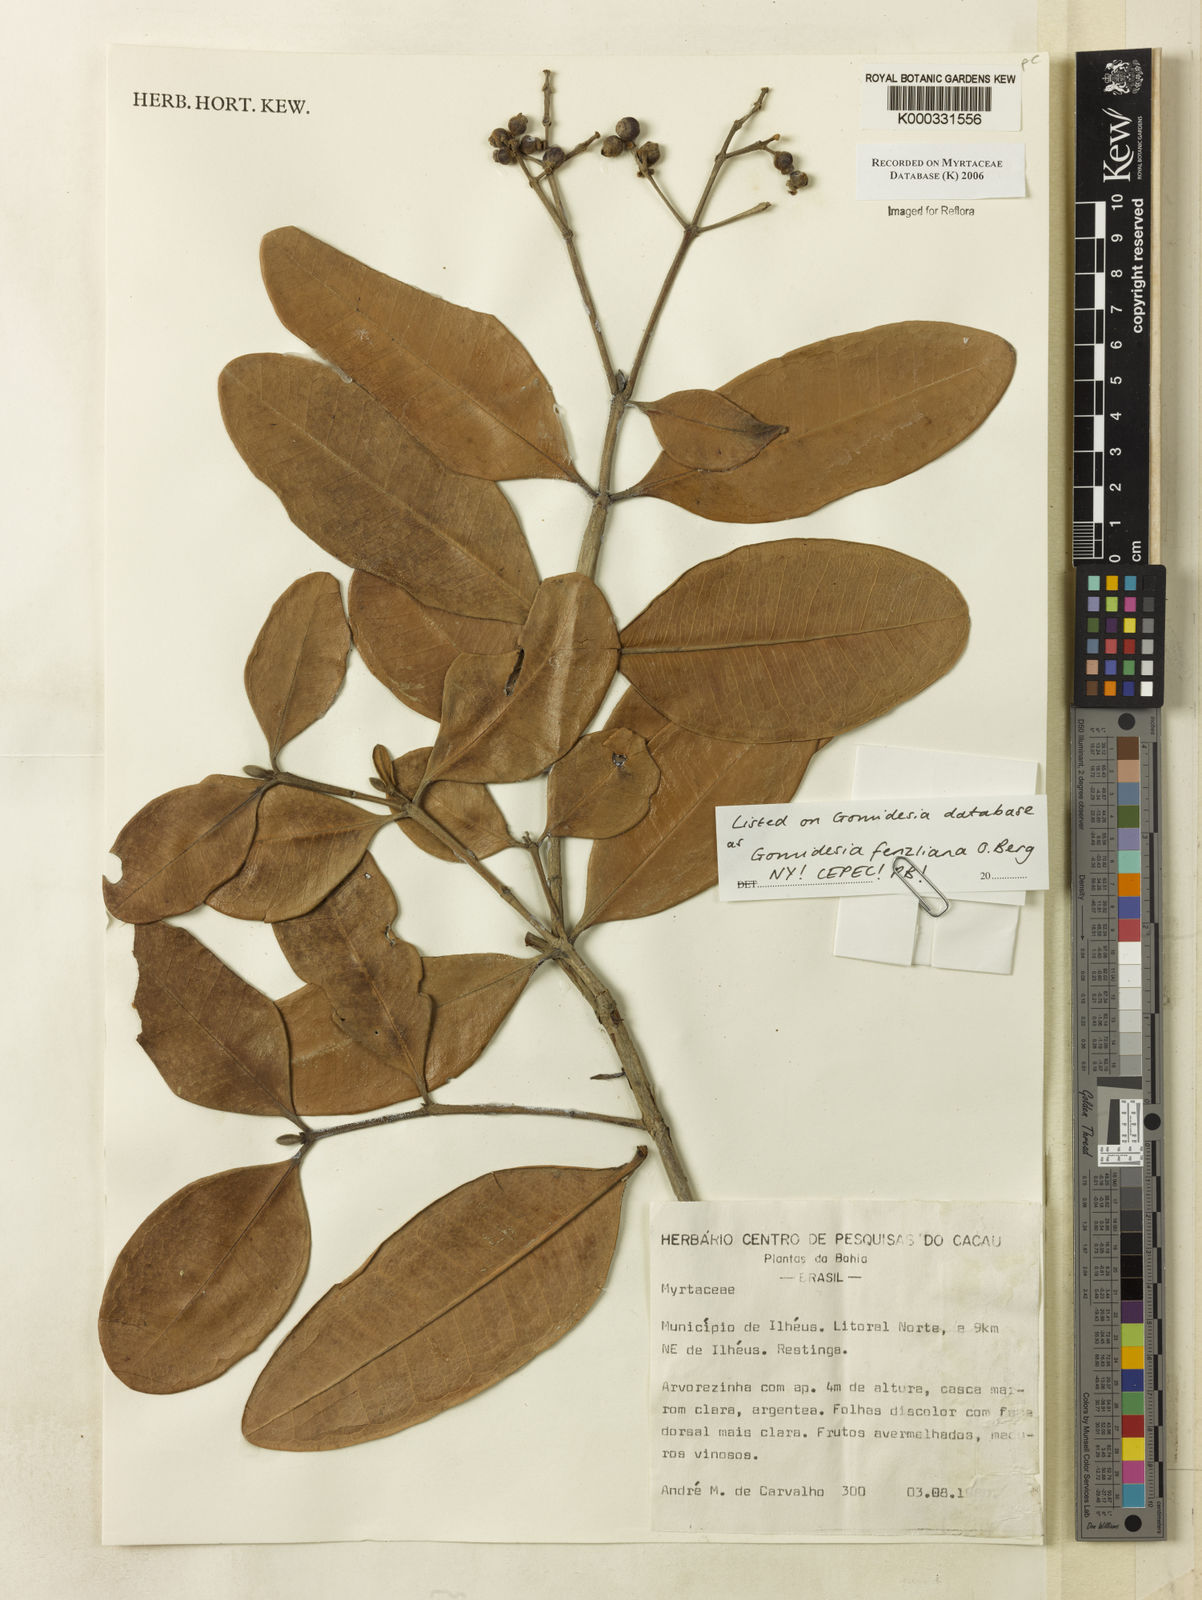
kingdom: Plantae
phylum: Tracheophyta
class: Magnoliopsida
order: Myrtales
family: Myrtaceae
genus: Myrcia
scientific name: Myrcia ilheosensis
